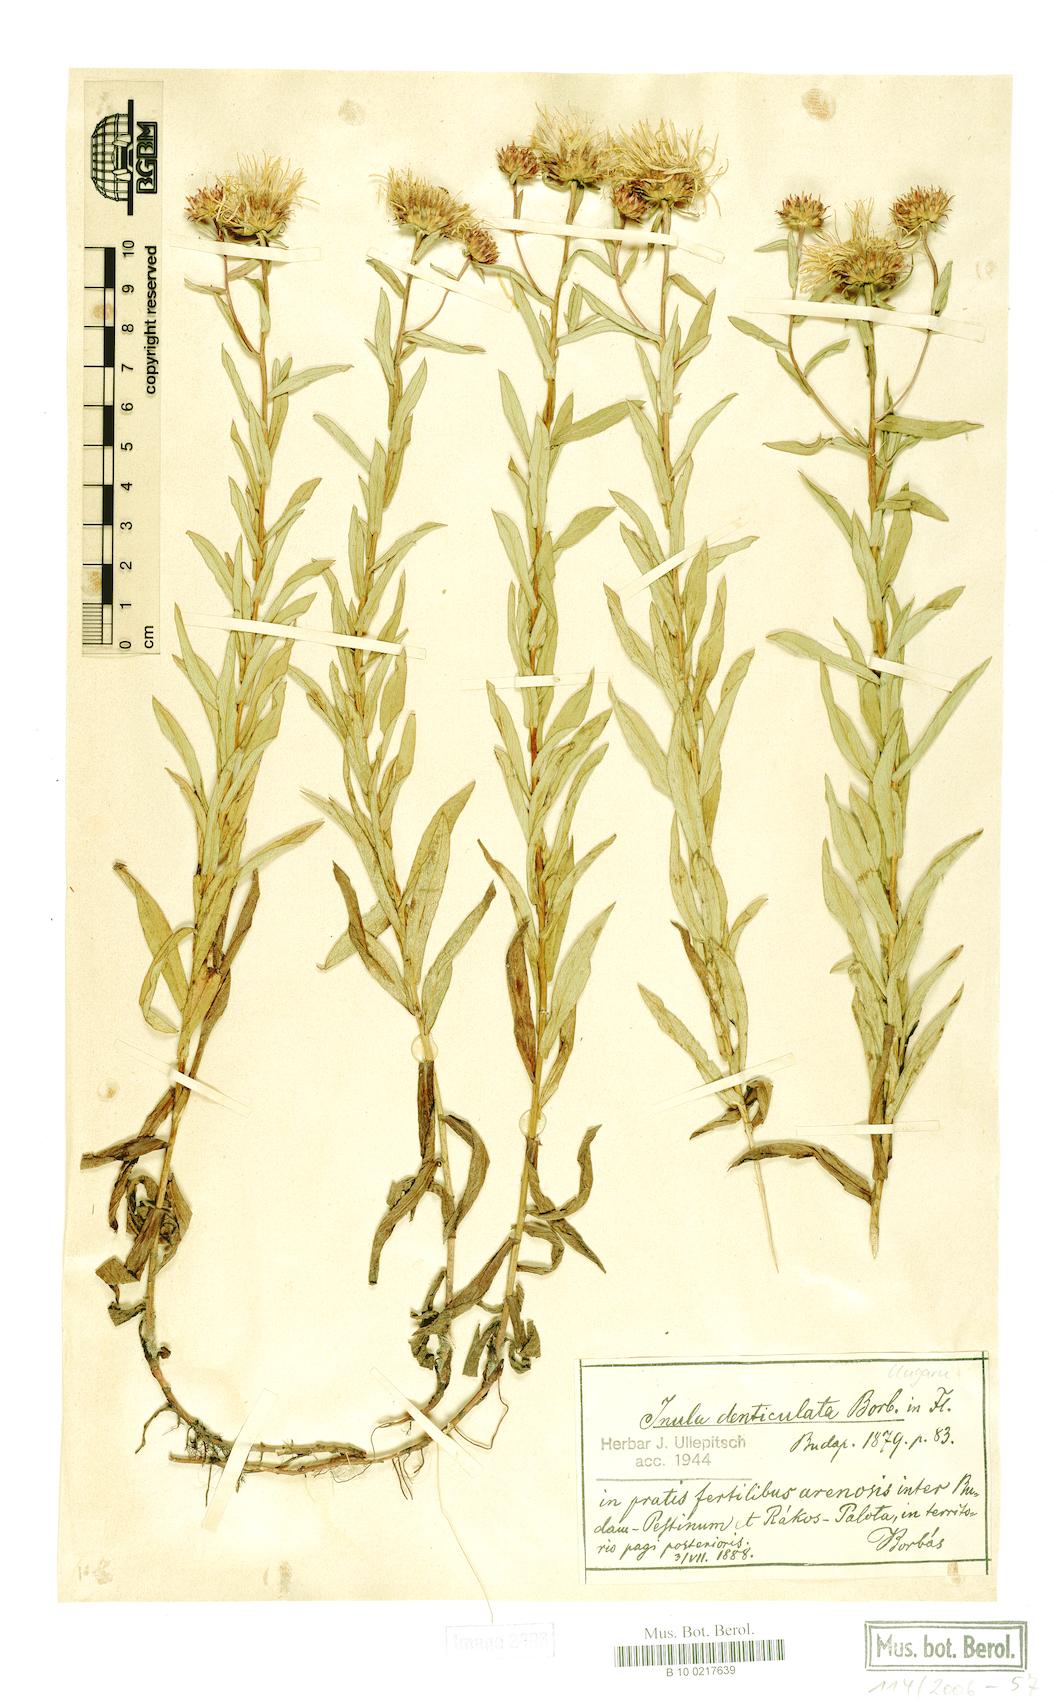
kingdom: Plantae
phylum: Tracheophyta
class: Magnoliopsida
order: Asterales
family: Asteraceae
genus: Pentanema
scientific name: Pentanema salicinum
